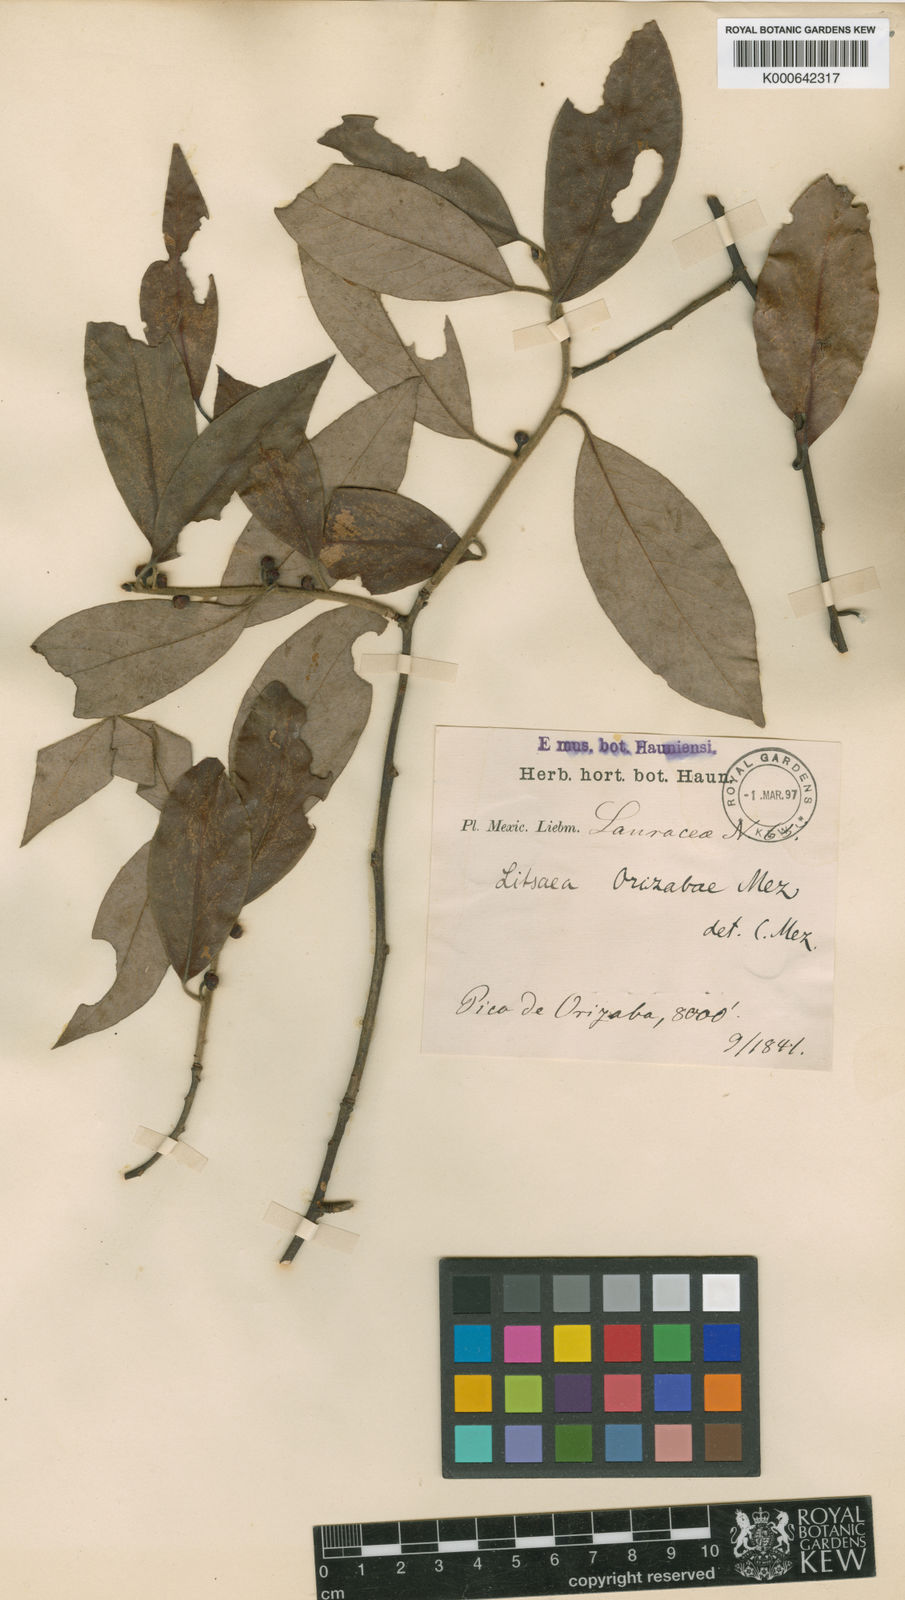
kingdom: Plantae
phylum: Tracheophyta
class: Magnoliopsida
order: Laurales
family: Lauraceae
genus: Licaria
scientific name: Licaria triandra
